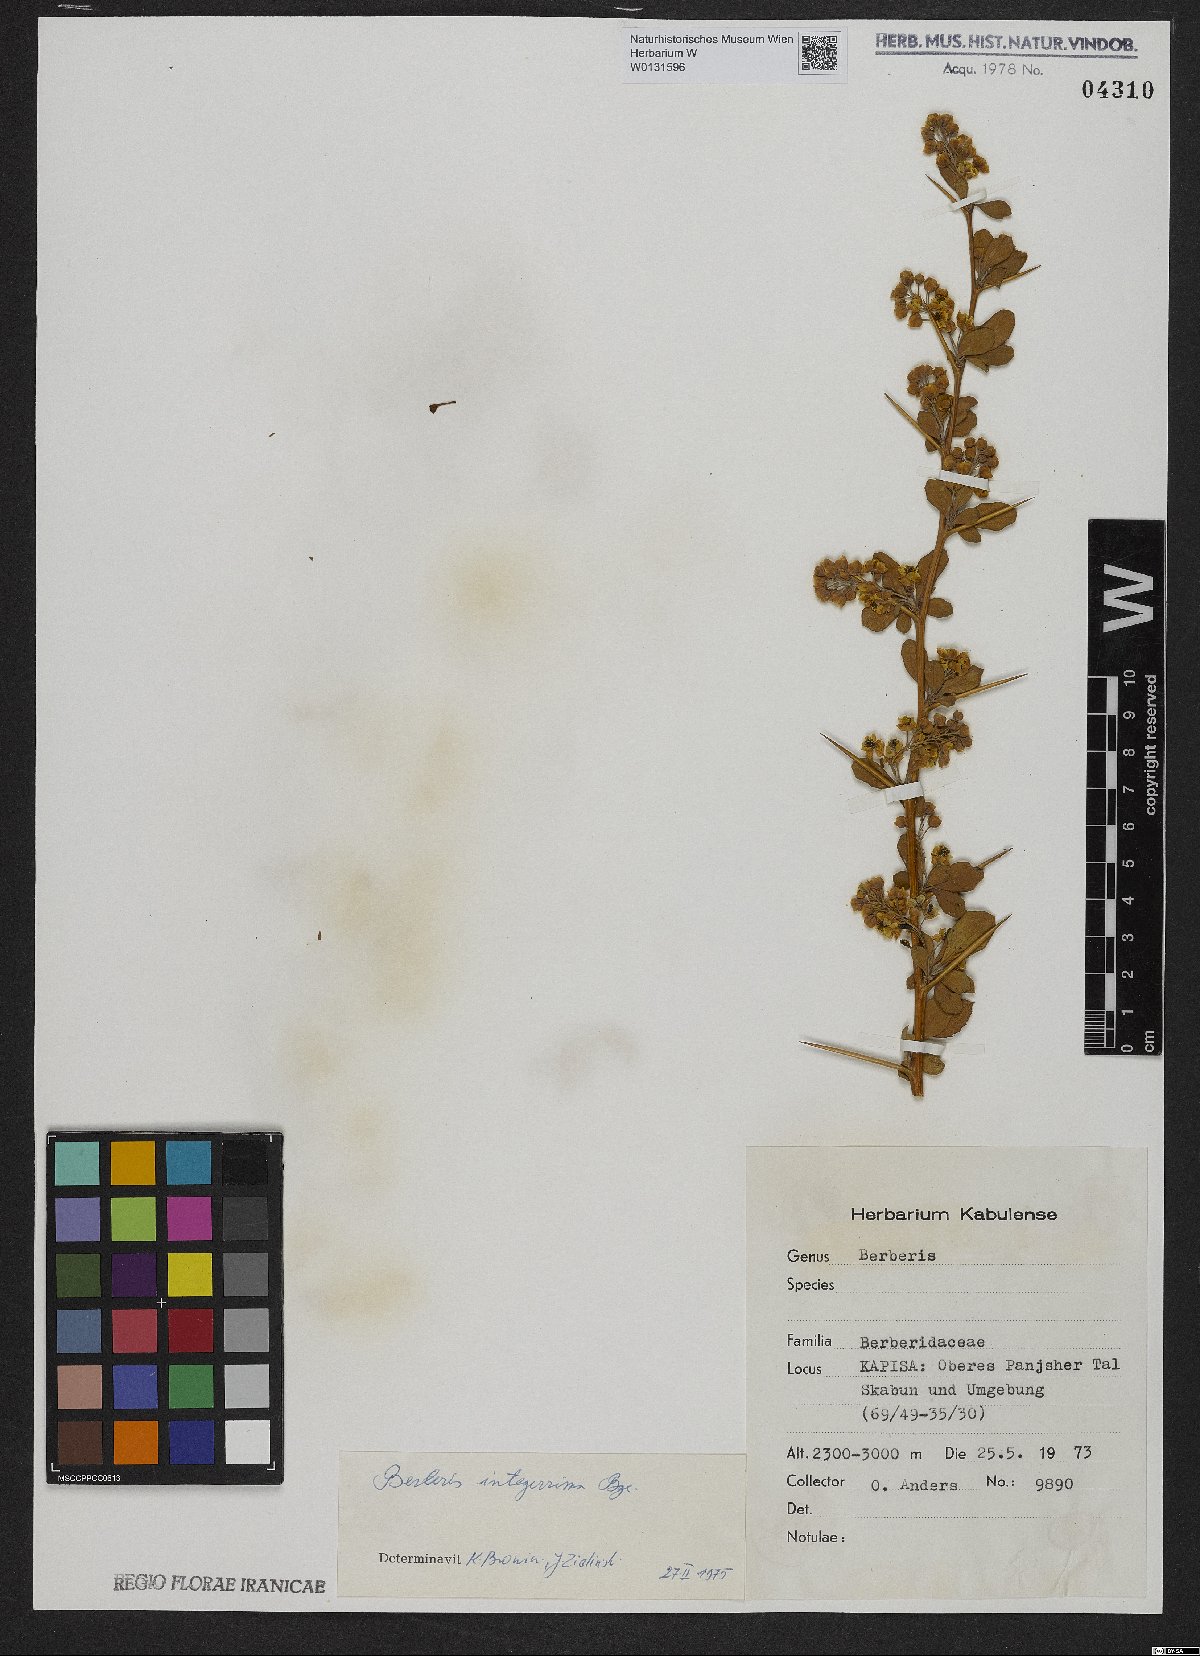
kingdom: Plantae
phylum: Tracheophyta
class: Magnoliopsida
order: Ranunculales
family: Berberidaceae
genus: Berberis
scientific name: Berberis integerrima
